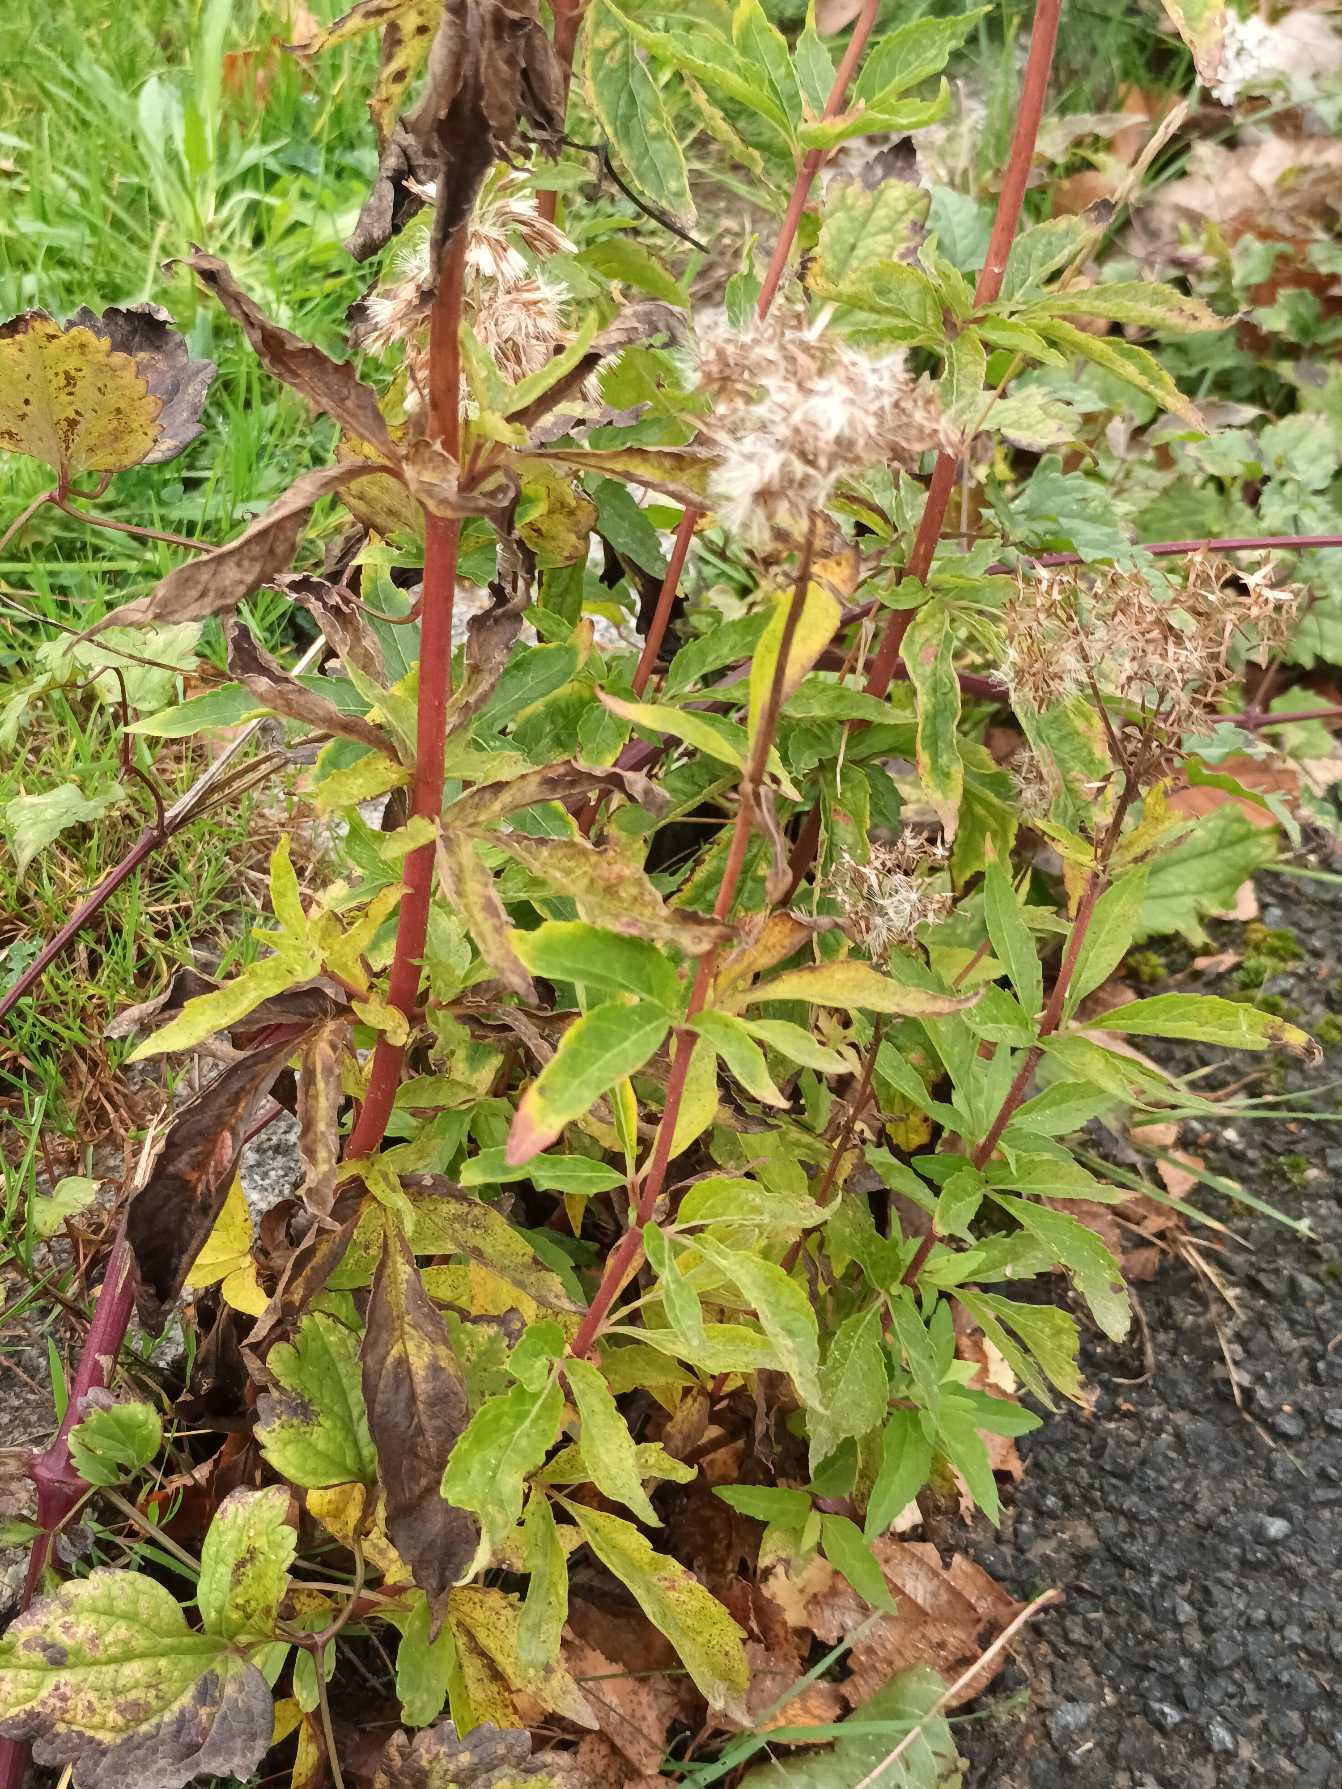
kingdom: Plantae
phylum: Tracheophyta
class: Magnoliopsida
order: Asterales
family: Asteraceae
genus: Eupatorium
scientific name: Eupatorium cannabinum
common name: Hjortetrøst
